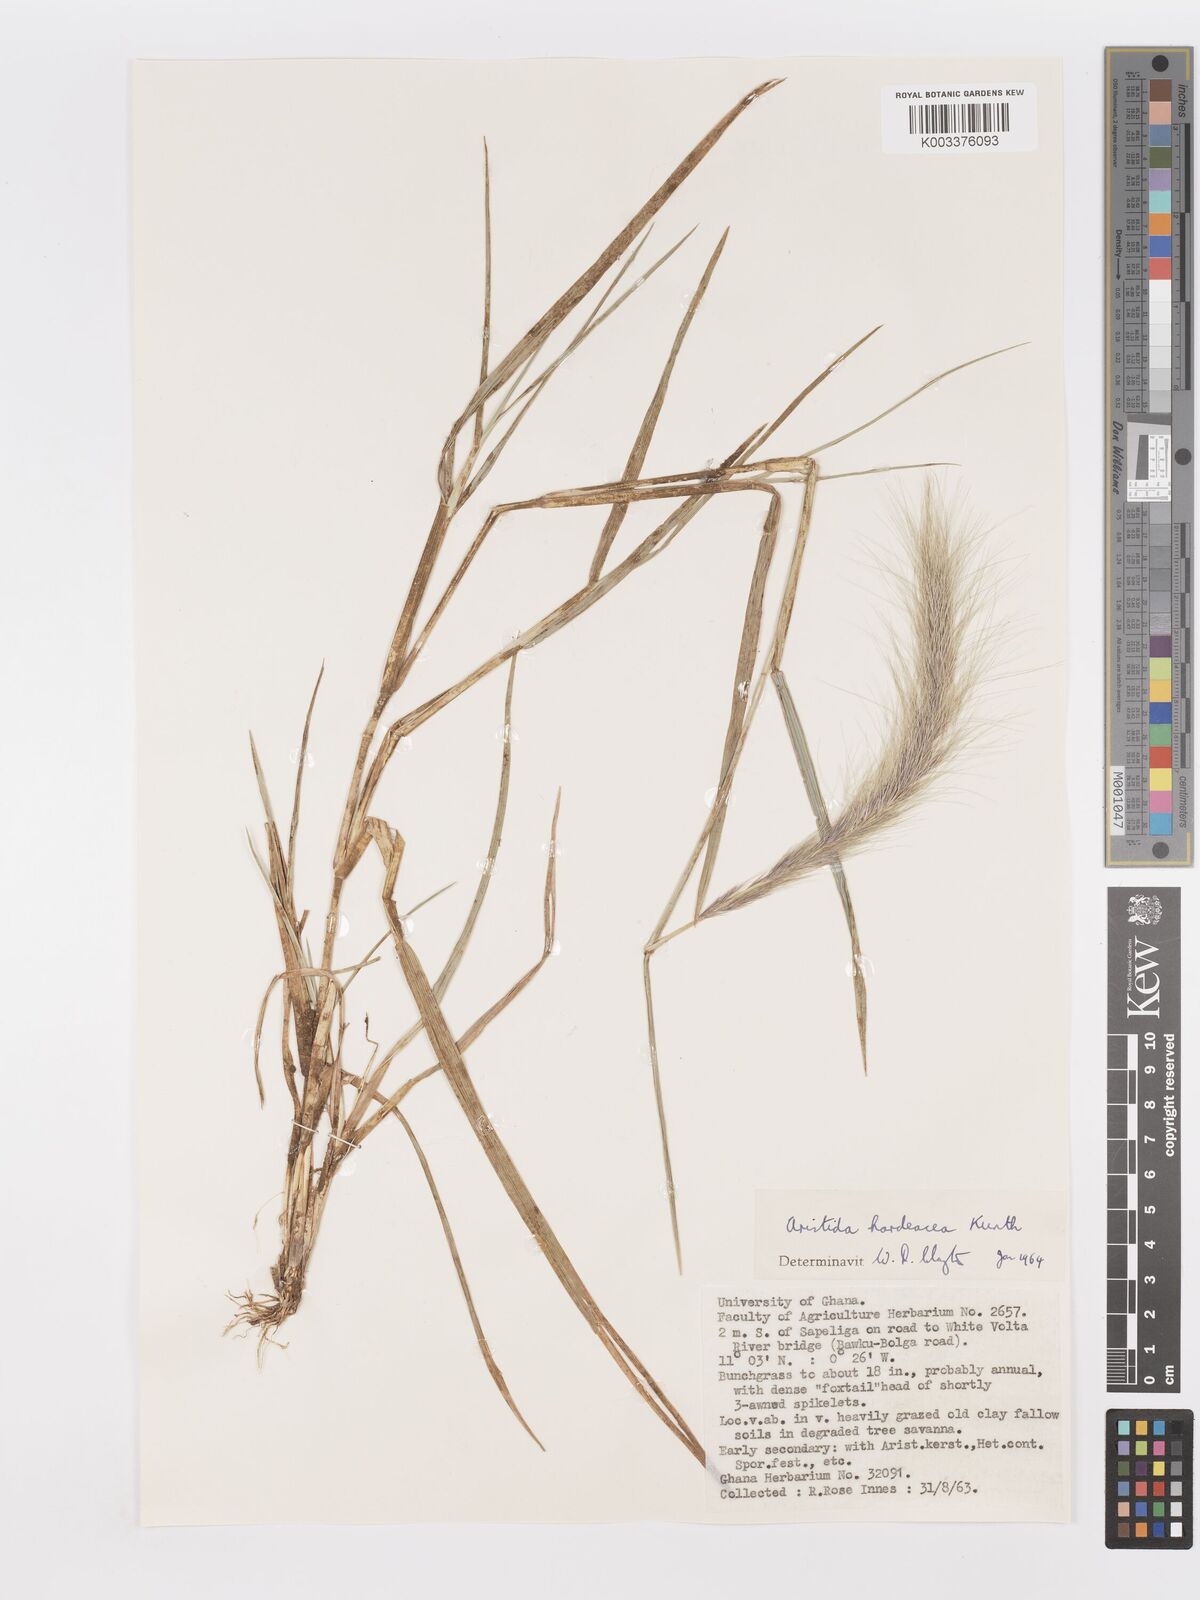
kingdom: Plantae
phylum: Tracheophyta
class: Liliopsida
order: Poales
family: Poaceae
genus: Aristida
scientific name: Aristida hordeacea
